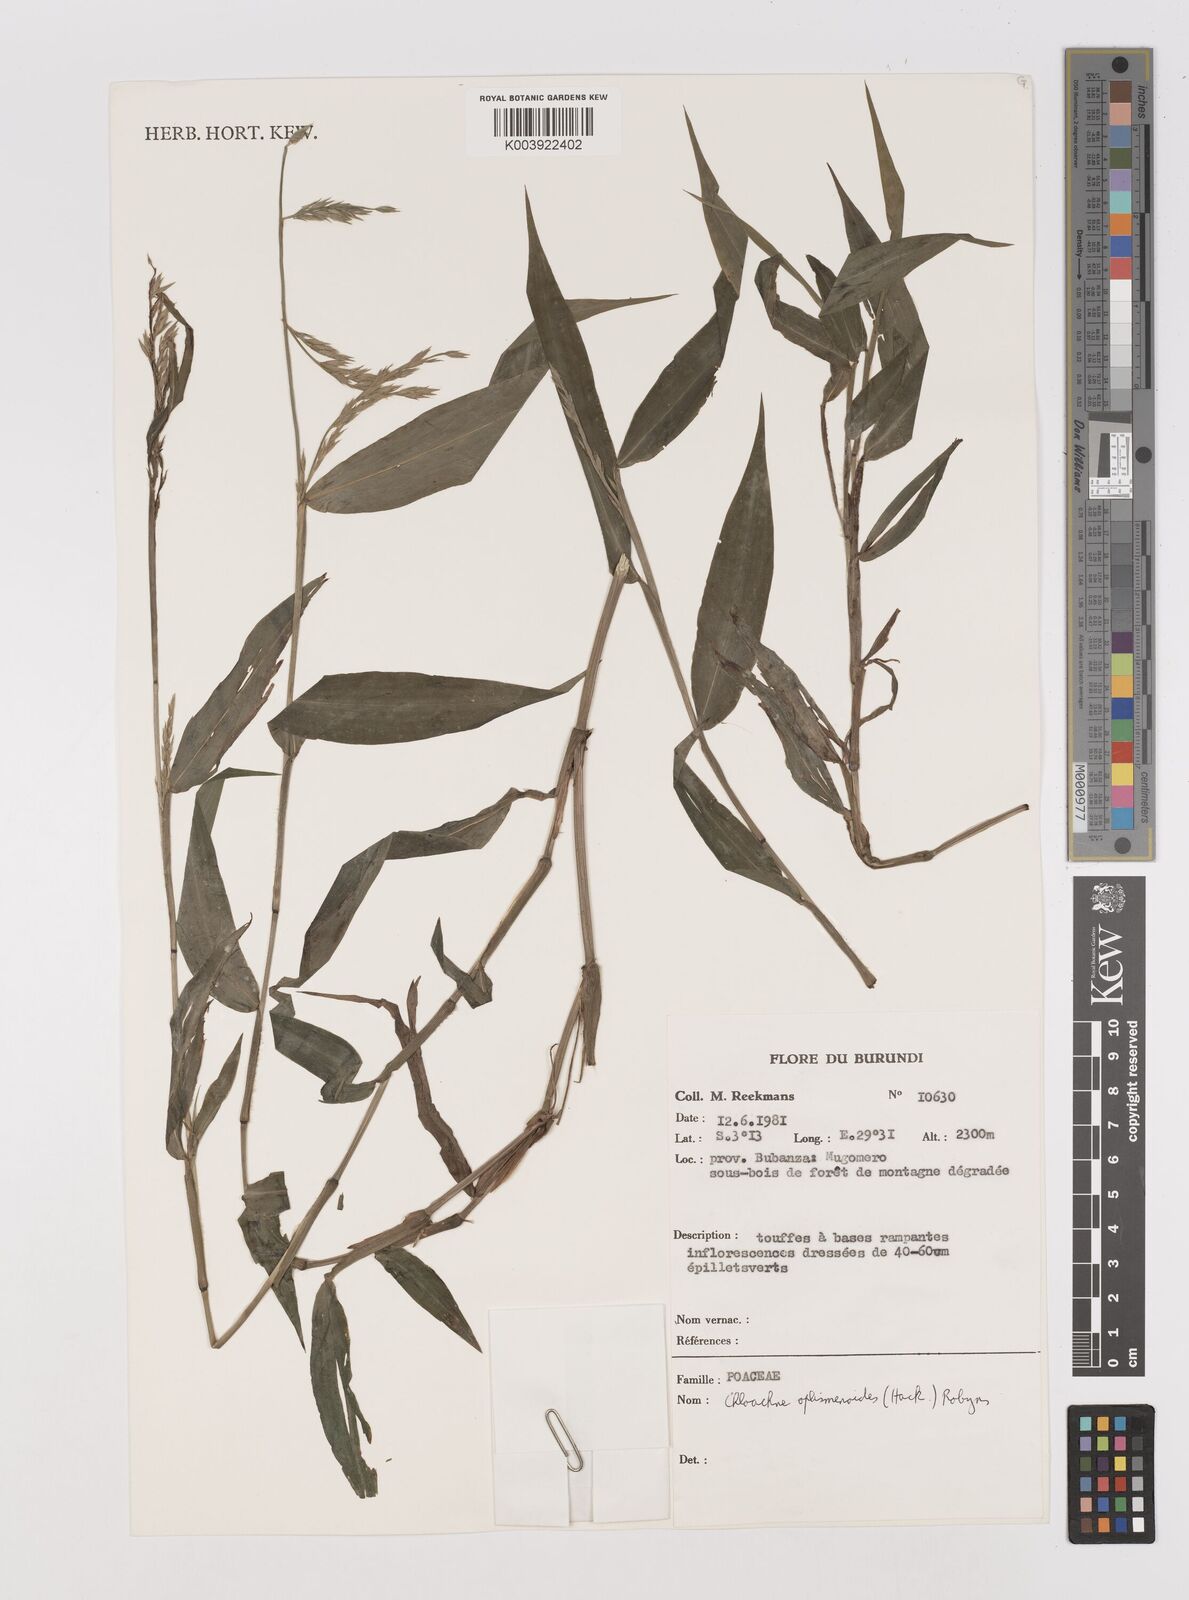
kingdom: Plantae
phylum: Tracheophyta
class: Liliopsida
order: Poales
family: Poaceae
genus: Poecilostachys
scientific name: Poecilostachys oplismenoides
